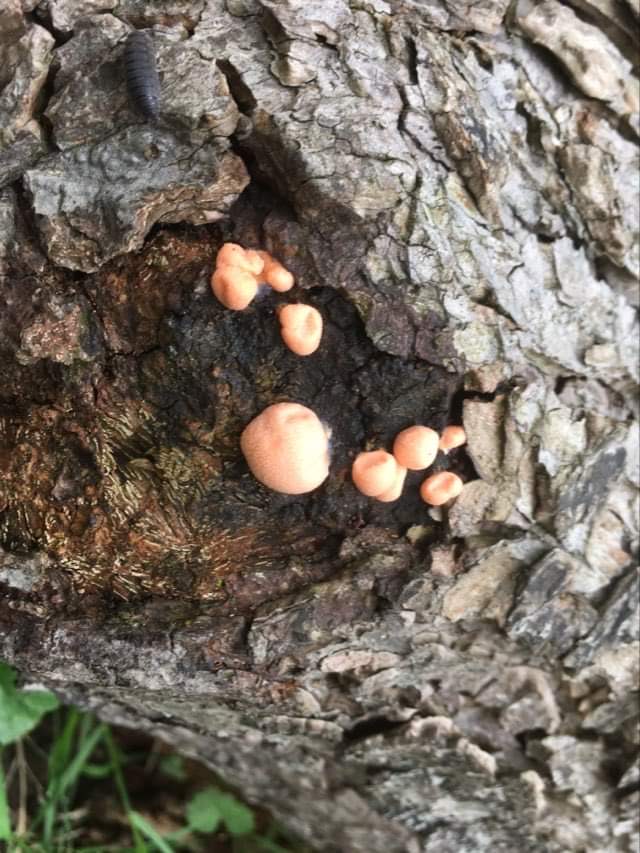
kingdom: Protozoa
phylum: Mycetozoa
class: Myxomycetes
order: Cribrariales
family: Tubiferaceae
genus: Lycogala
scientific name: Lycogala epidendrum
